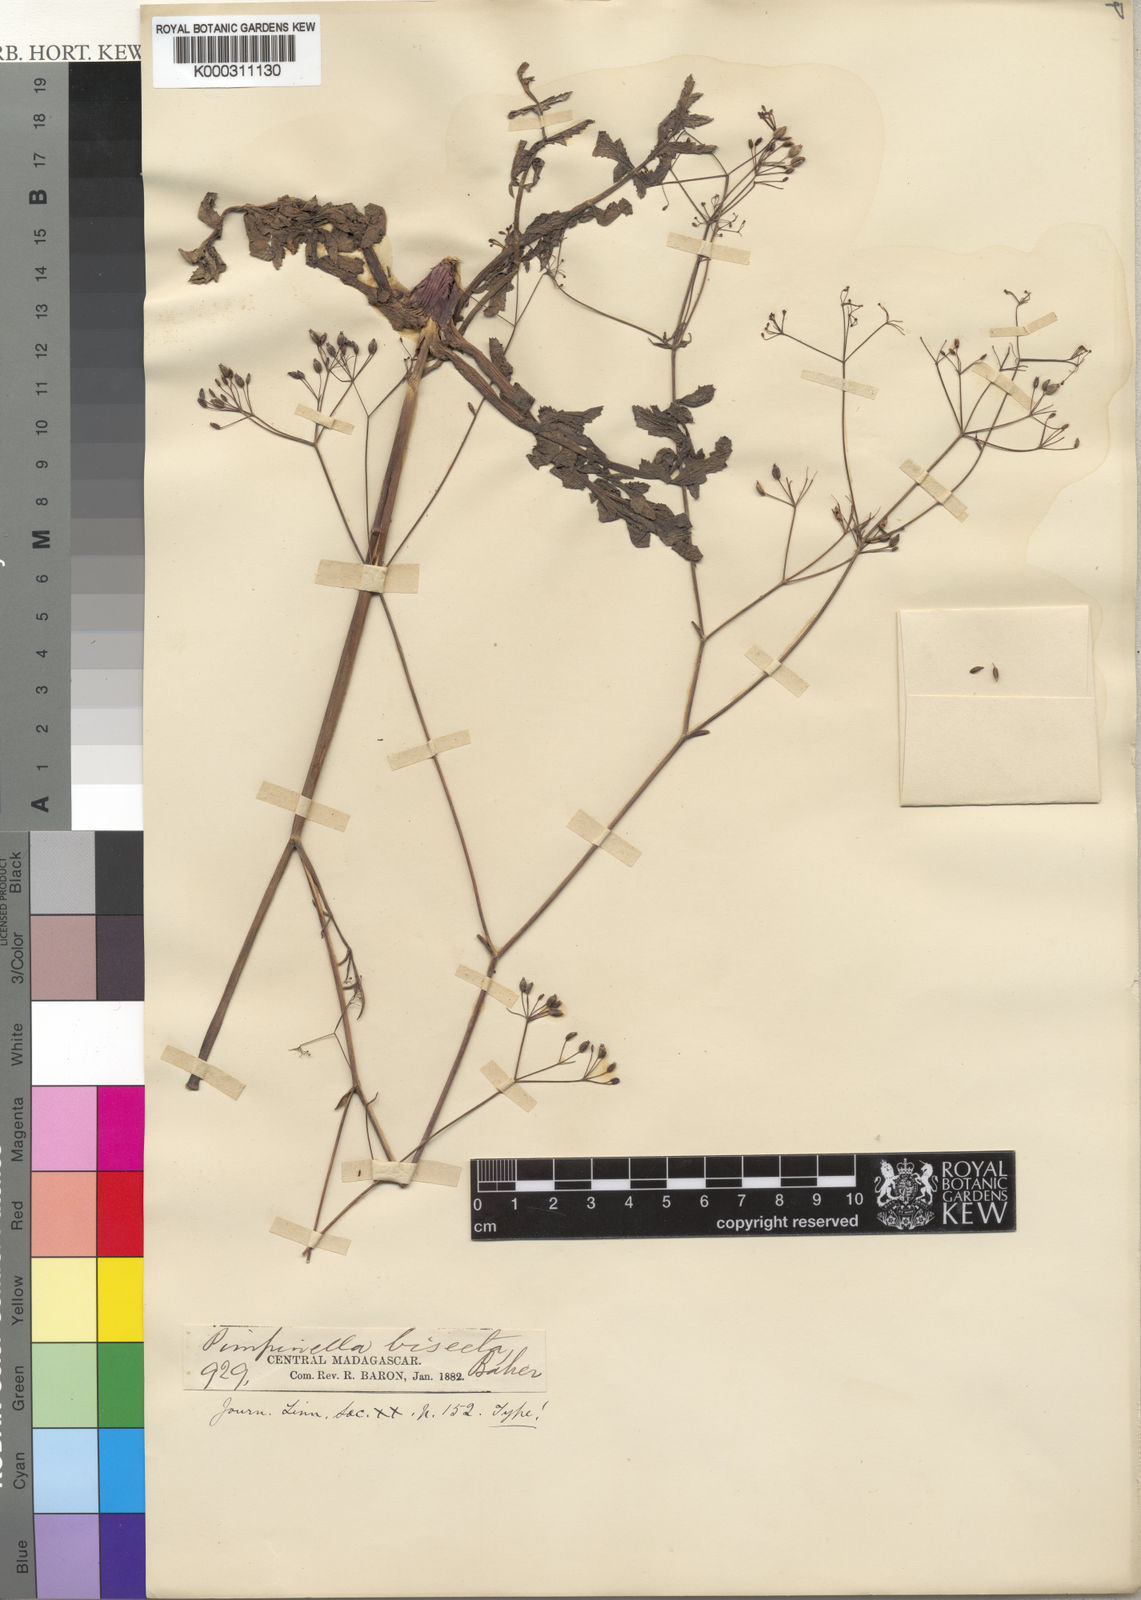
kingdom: Plantae
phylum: Tracheophyta
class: Magnoliopsida
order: Apiales
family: Apiaceae
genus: Pimpinella
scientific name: Pimpinella ebracteata
